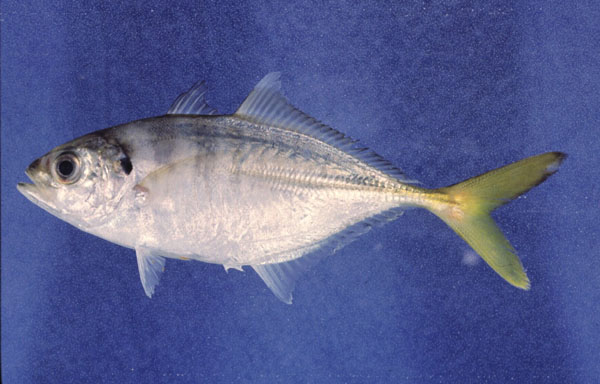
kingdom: Animalia
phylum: Chordata
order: Perciformes
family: Carangidae
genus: Alepes
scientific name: Alepes djedaba
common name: Shrimp scad
